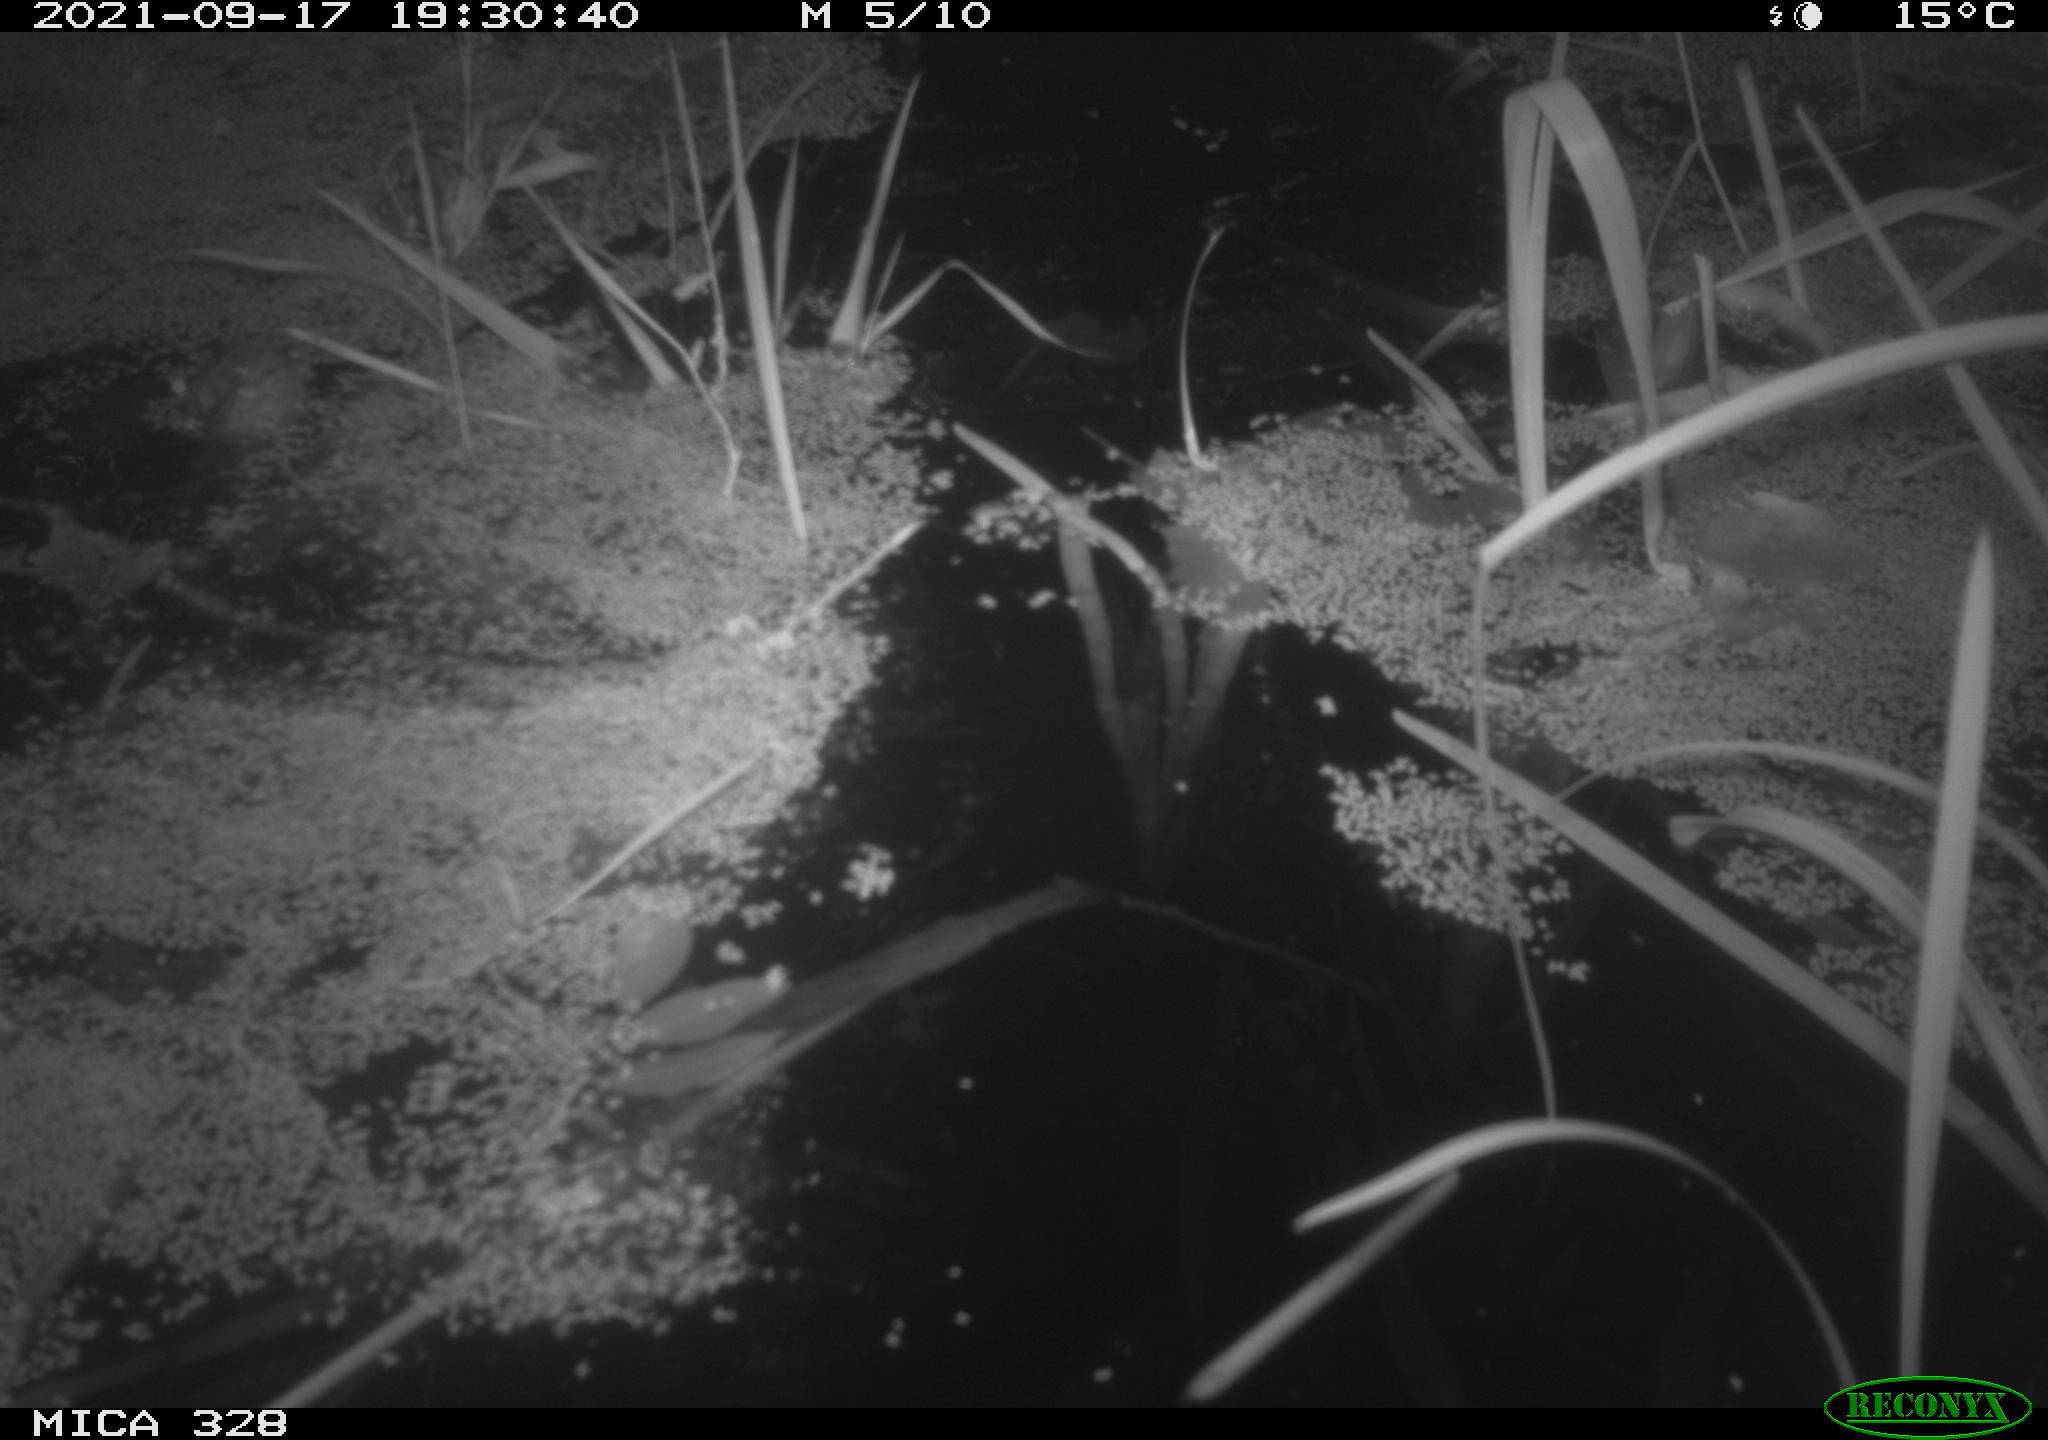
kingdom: Animalia
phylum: Chordata
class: Mammalia
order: Rodentia
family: Cricetidae
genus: Ondatra
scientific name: Ondatra zibethicus
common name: Muskrat
